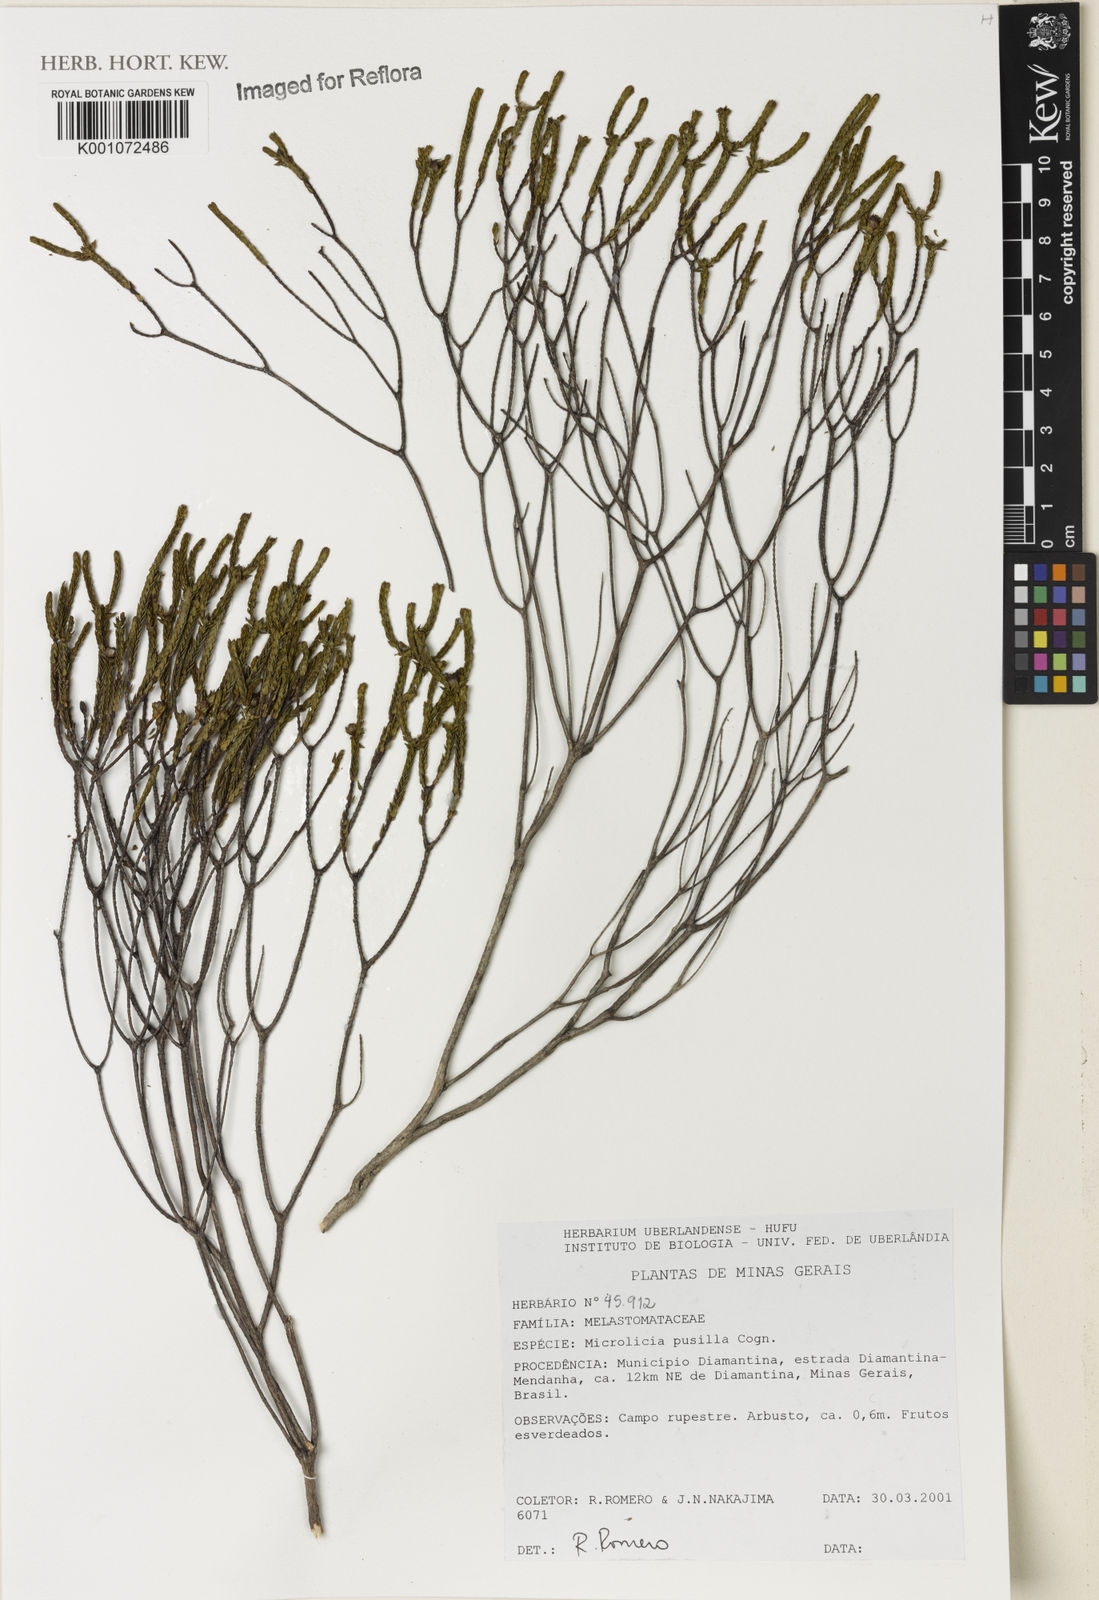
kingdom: Plantae
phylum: Tracheophyta
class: Magnoliopsida
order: Myrtales
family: Melastomataceae
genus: Microlicia
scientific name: Microlicia pusilla
